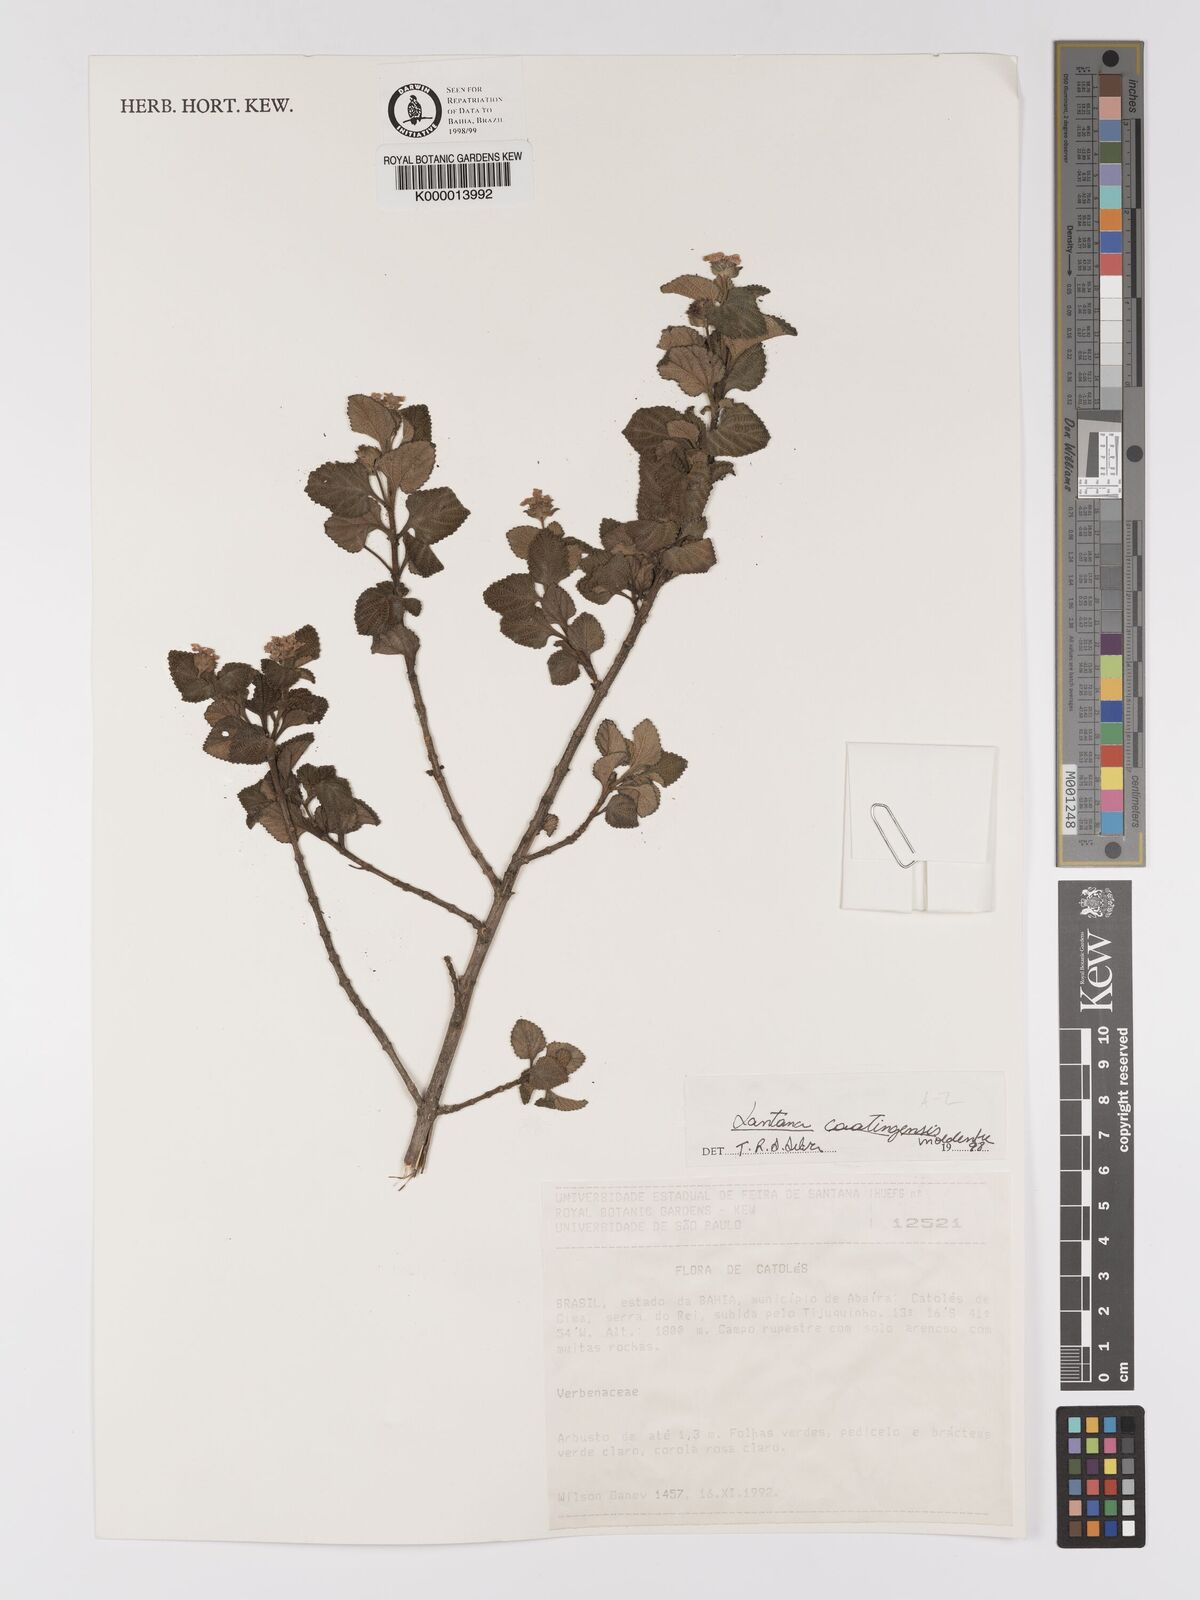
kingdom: Plantae
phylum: Tracheophyta
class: Magnoliopsida
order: Lamiales
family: Verbenaceae
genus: Lantana
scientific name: Lantana caatingensis
